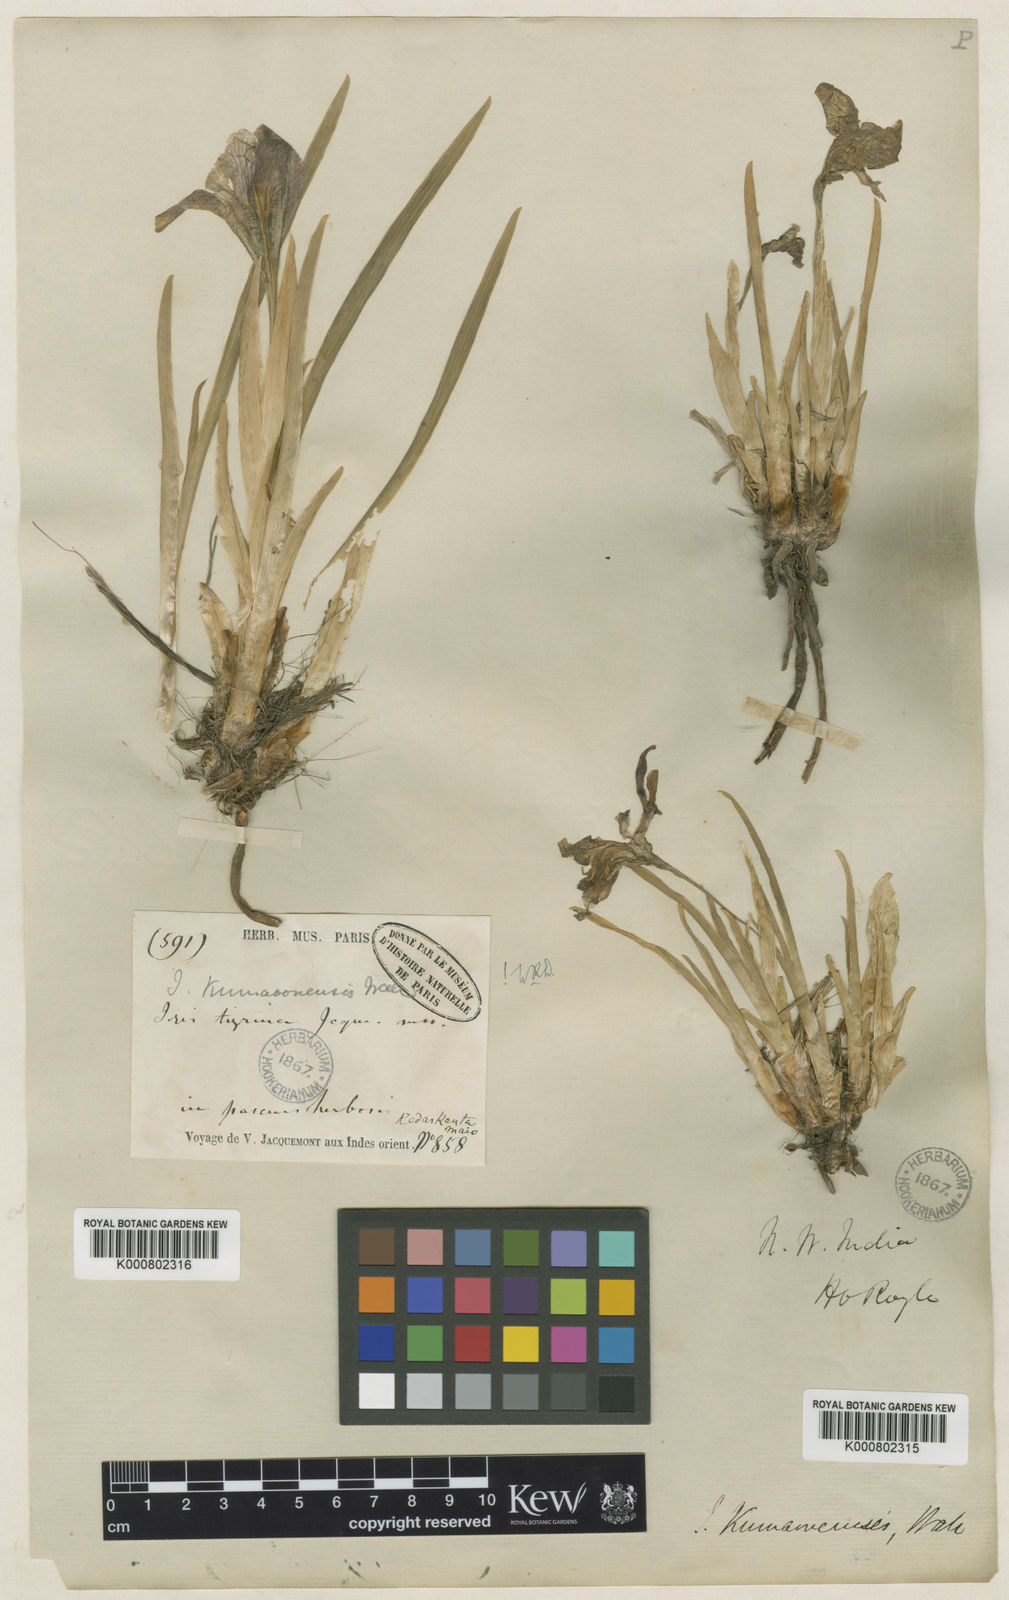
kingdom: Plantae
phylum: Tracheophyta
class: Liliopsida
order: Asparagales
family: Iridaceae
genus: Iris
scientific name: Iris kemaonensis
